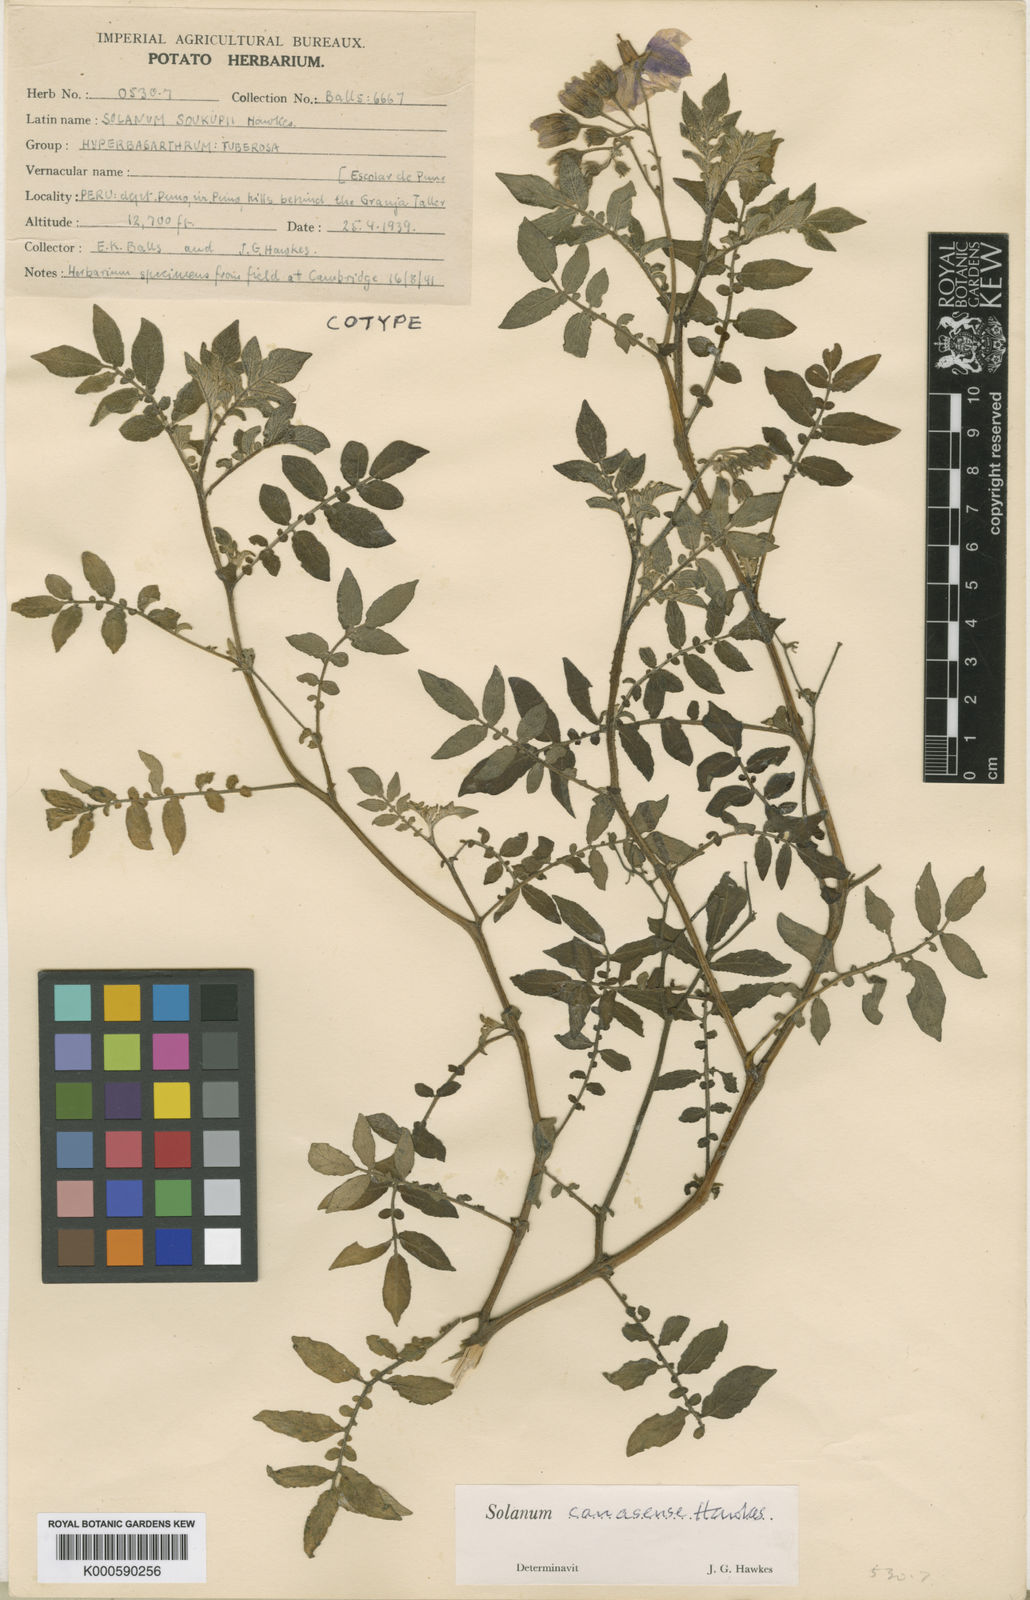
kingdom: Plantae
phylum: Tracheophyta
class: Magnoliopsida
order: Solanales
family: Solanaceae
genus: Solanum
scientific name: Solanum candolleanum
